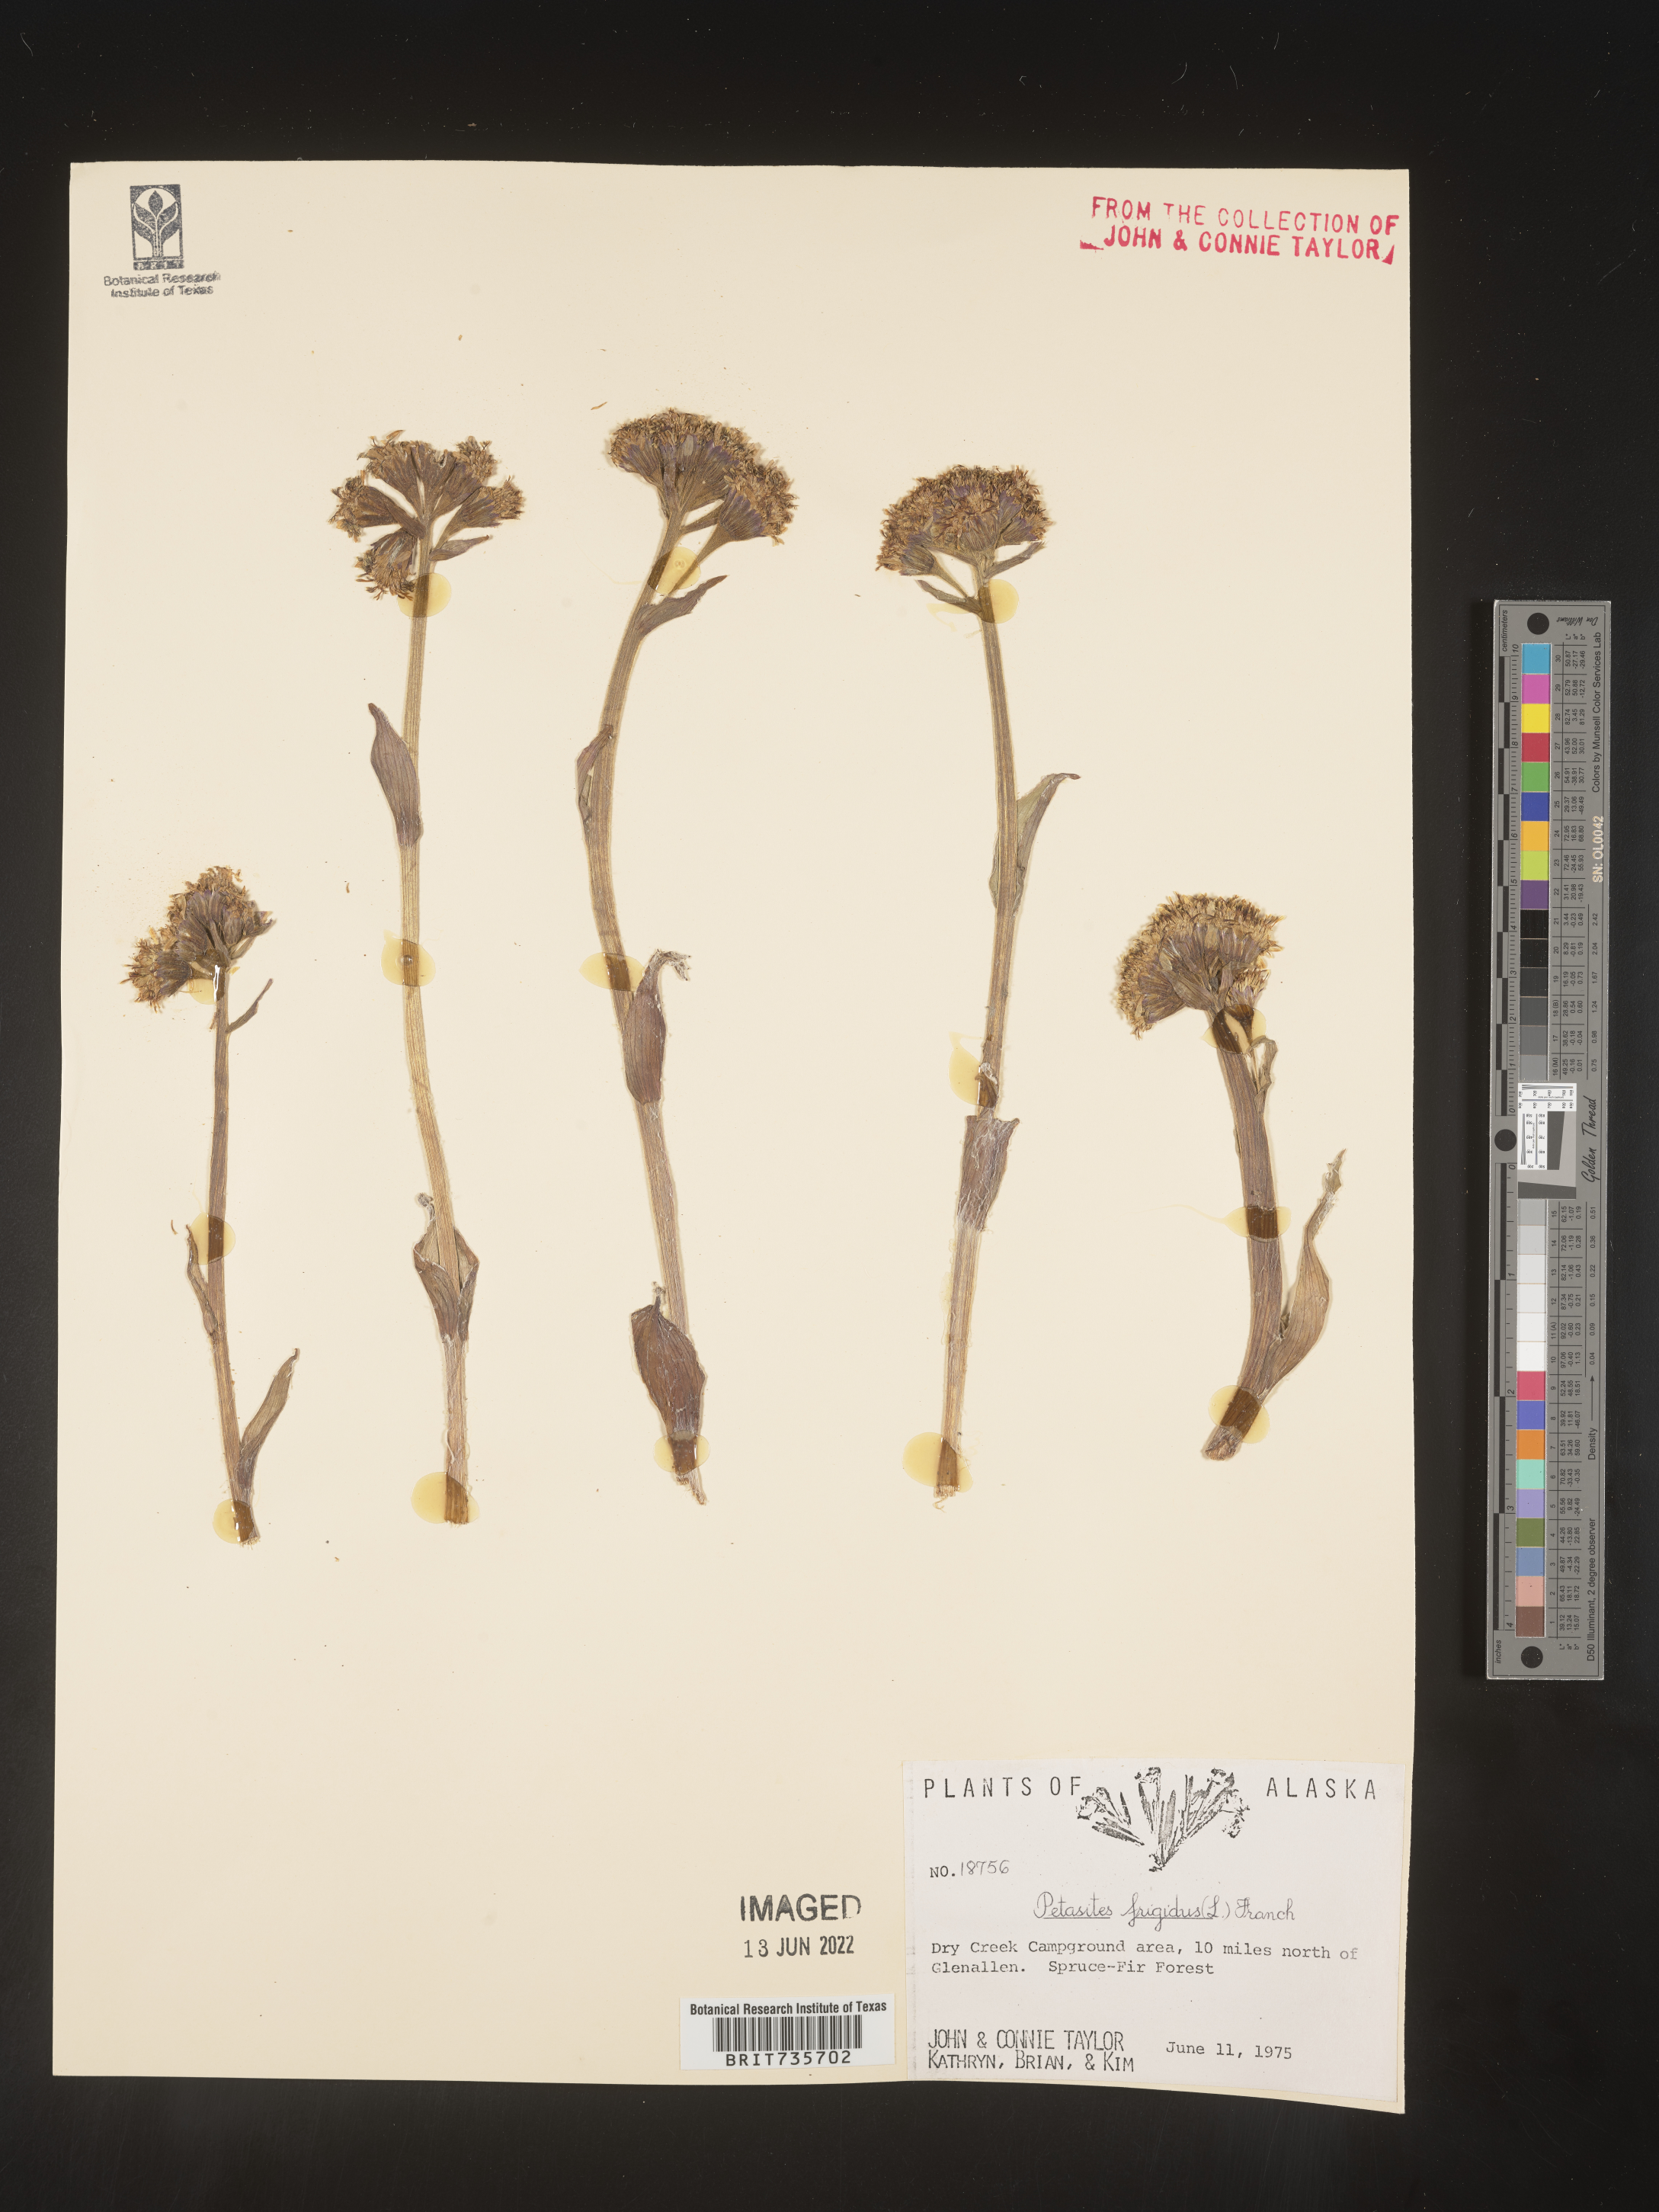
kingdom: Plantae
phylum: Tracheophyta
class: Magnoliopsida
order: Asterales
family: Asteraceae
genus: Petasites
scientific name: Petasites frigidus
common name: Arctic butterbur
